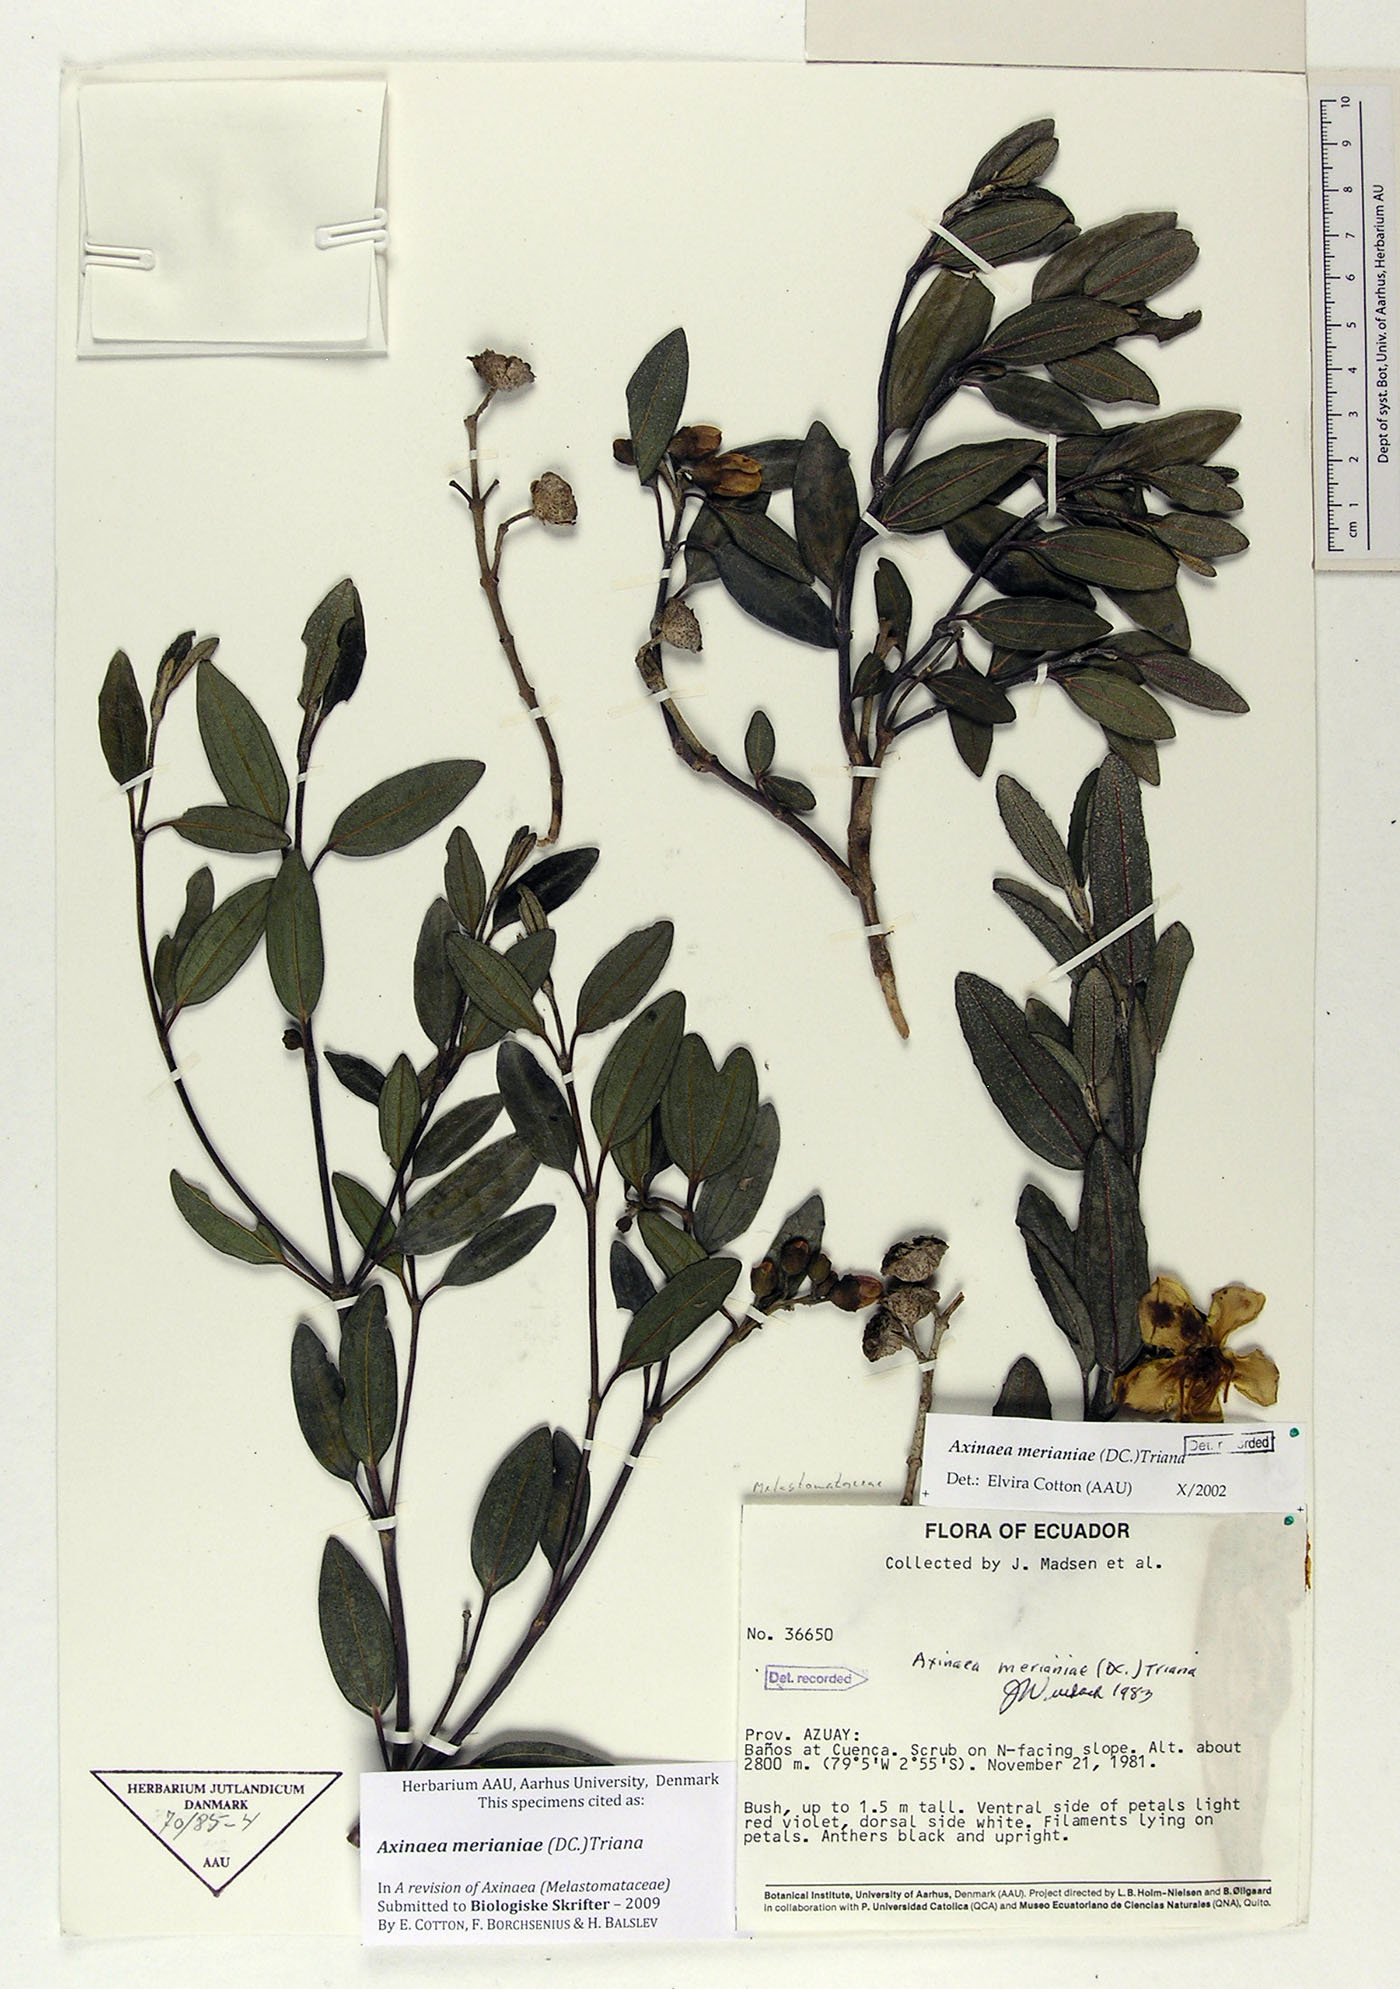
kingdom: Plantae
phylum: Tracheophyta
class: Magnoliopsida
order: Myrtales
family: Melastomataceae
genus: Axinaea
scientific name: Axinaea merianiae
